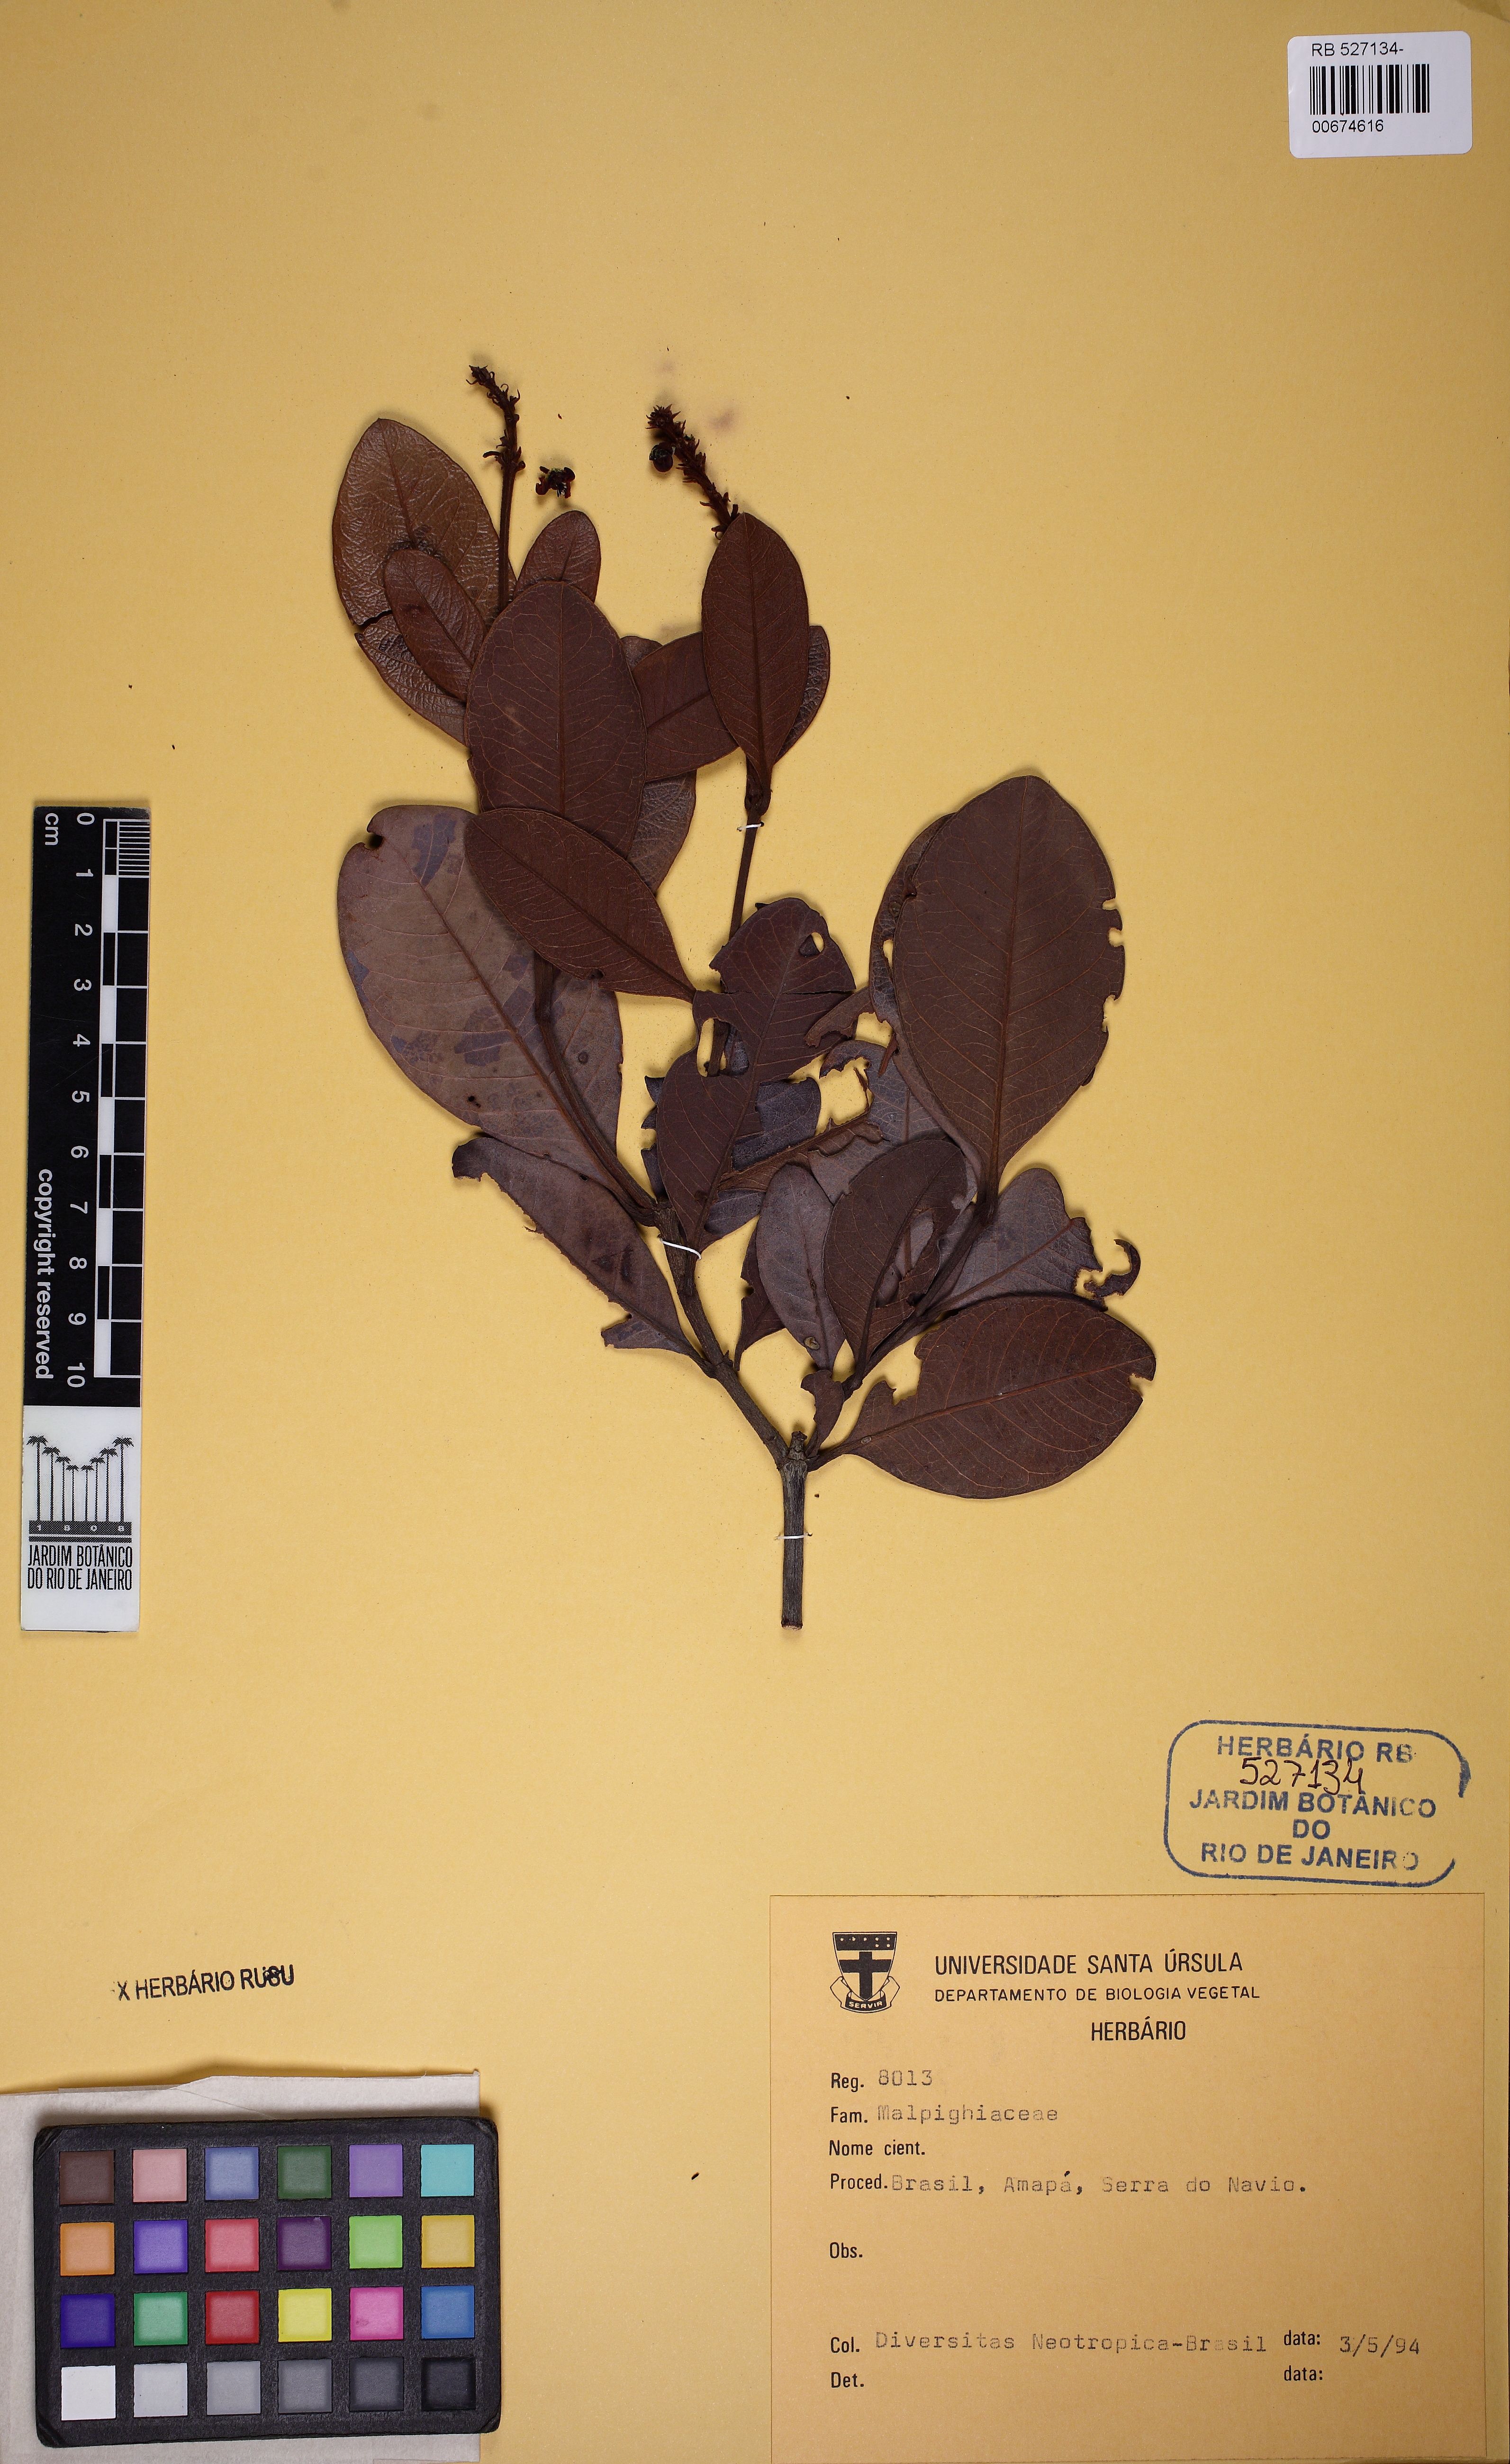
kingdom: Plantae
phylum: Tracheophyta
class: Magnoliopsida
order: Malpighiales
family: Malpighiaceae
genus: Byrsonima
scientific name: Byrsonima
